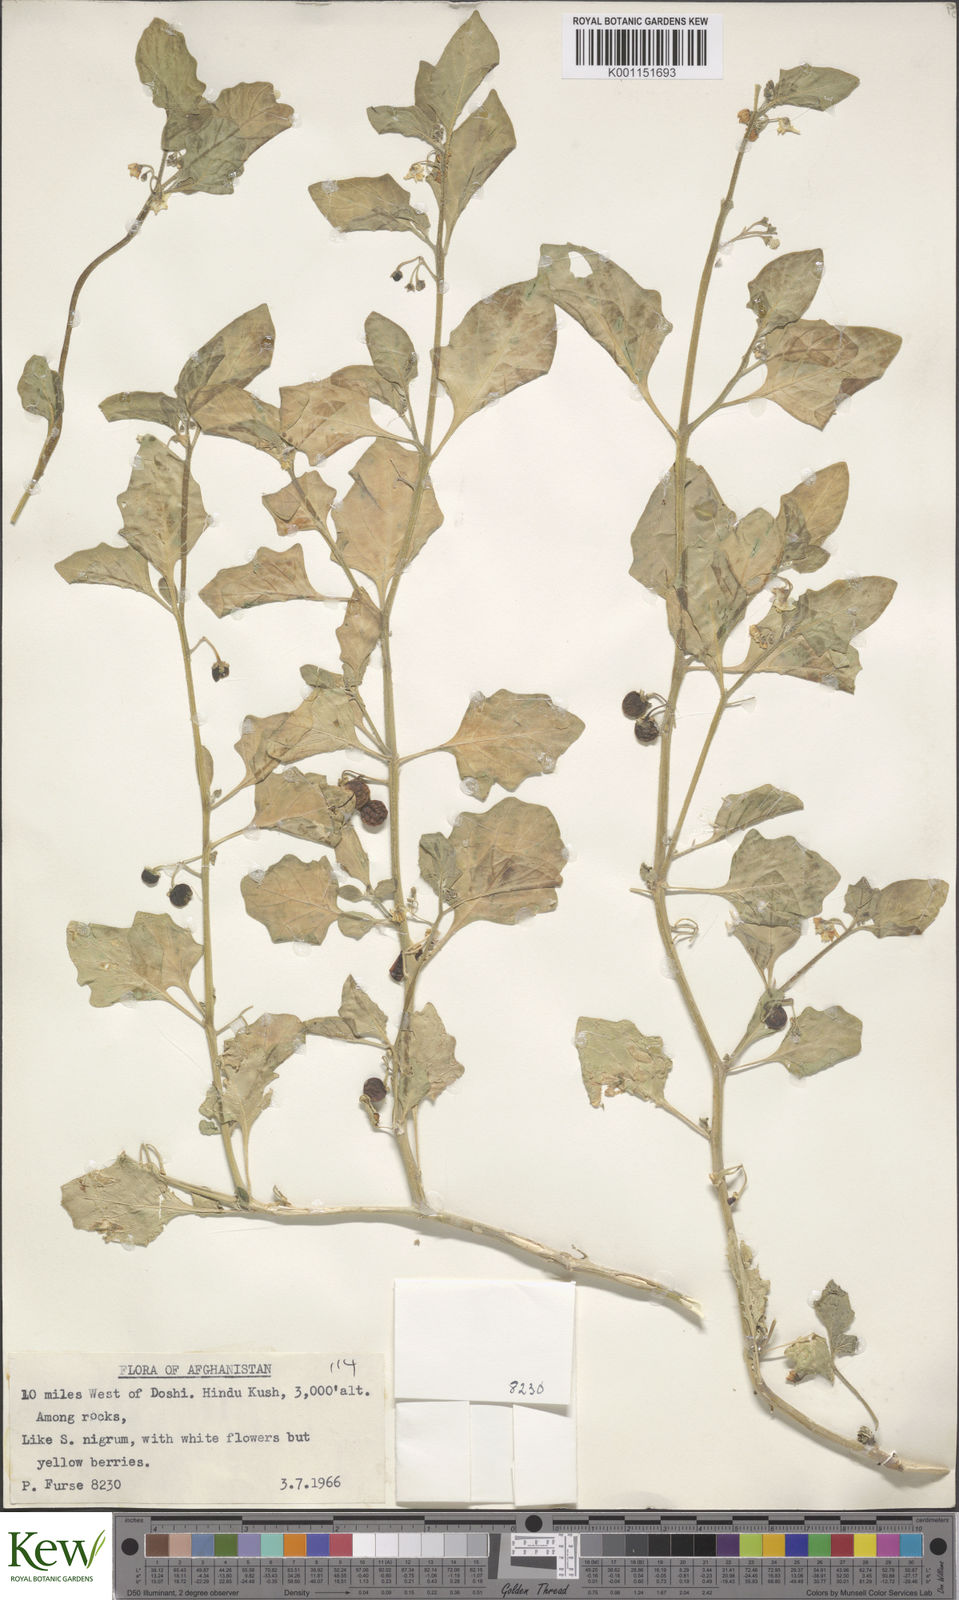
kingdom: Plantae
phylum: Tracheophyta
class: Magnoliopsida
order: Solanales
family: Solanaceae
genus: Solanum
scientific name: Solanum villosum
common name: Red nightshade
